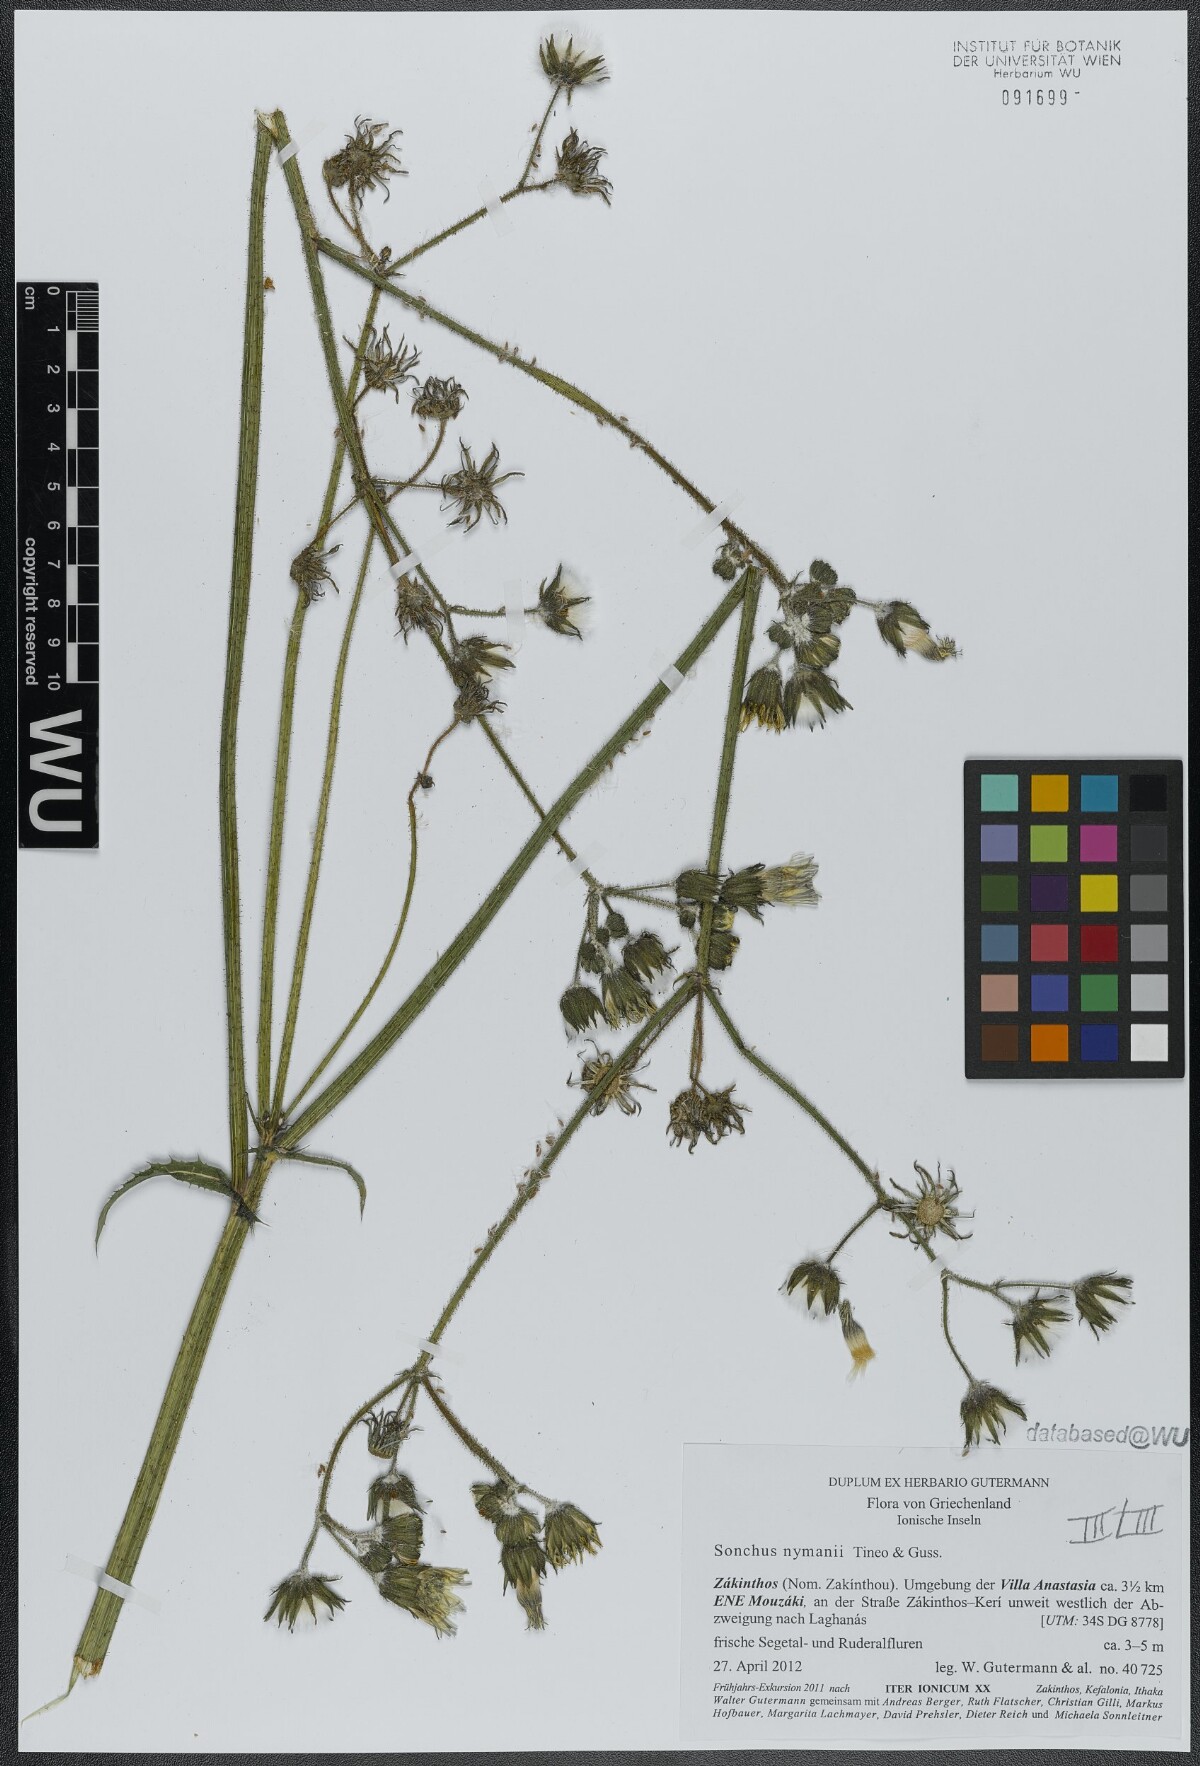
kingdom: Plantae
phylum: Tracheophyta
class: Magnoliopsida
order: Asterales
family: Asteraceae
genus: Sonchus
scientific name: Sonchus asper
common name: Prickly sow-thistle
